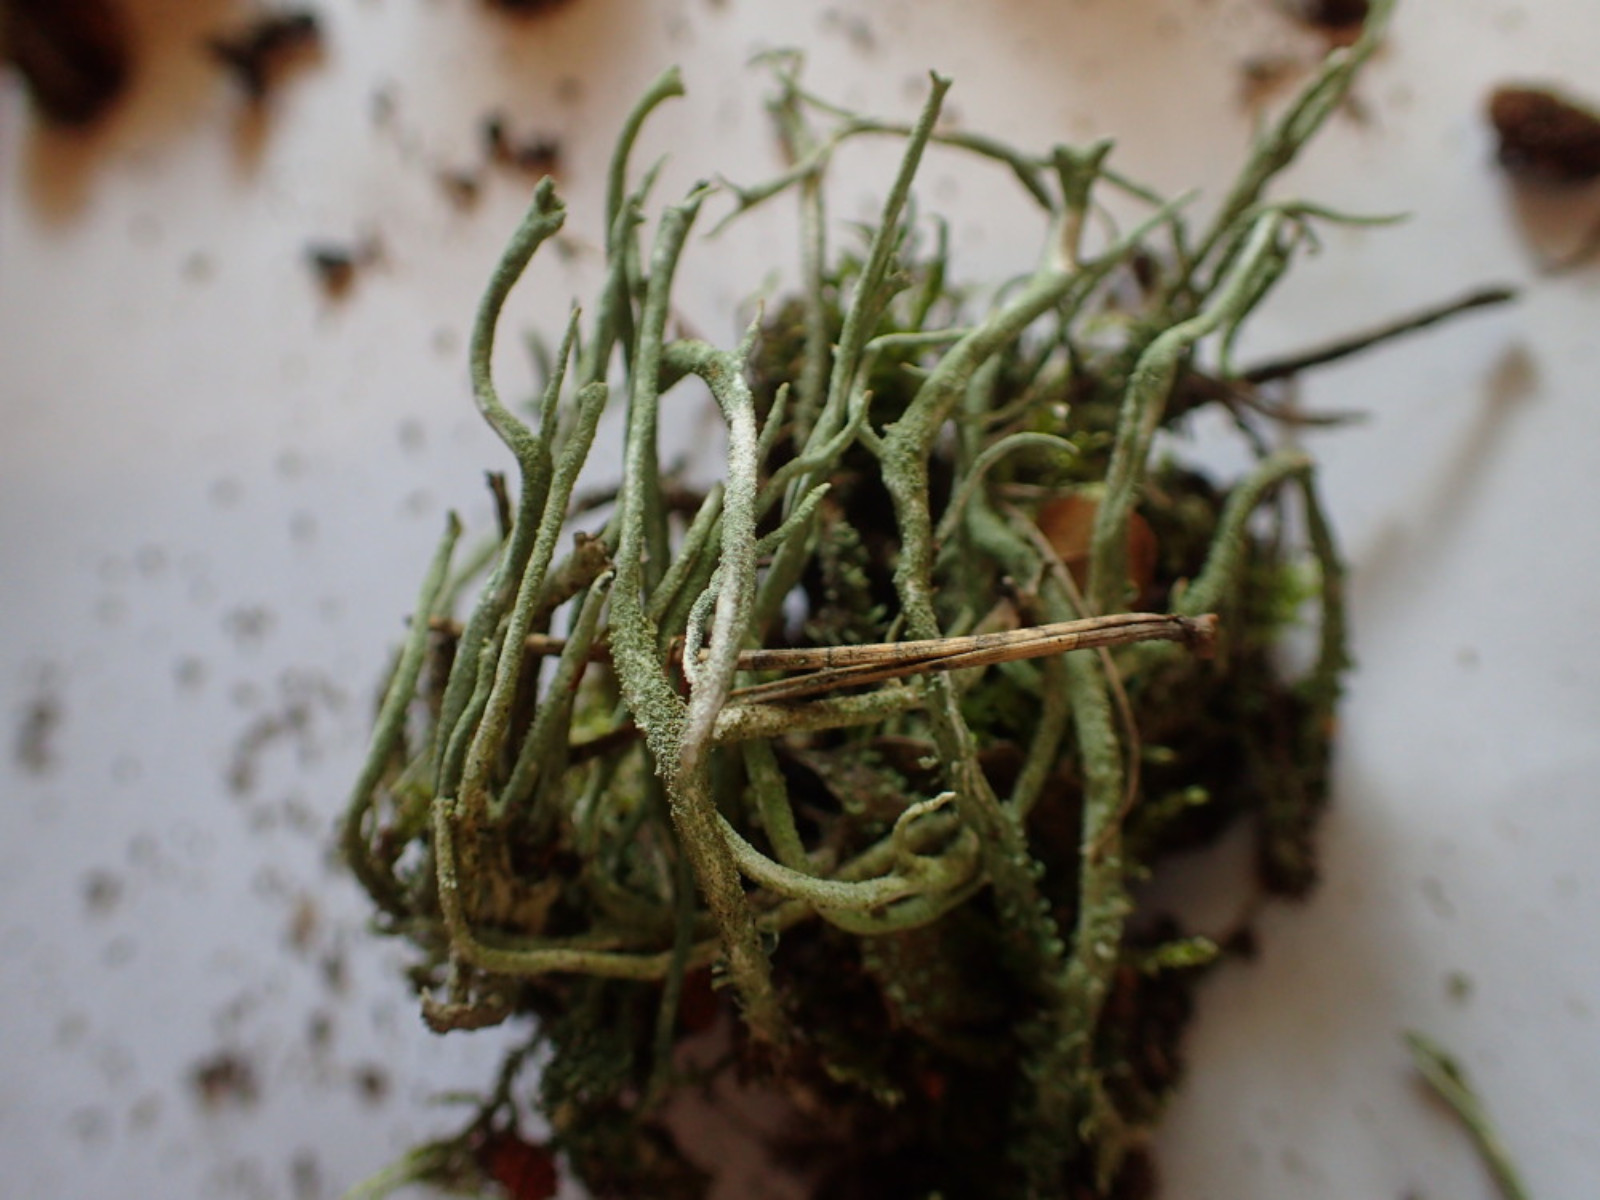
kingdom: Fungi
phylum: Ascomycota
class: Lecanoromycetes
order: Lecanorales
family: Cladoniaceae
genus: Cladonia
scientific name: Cladonia subulata
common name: spids bægerlav
